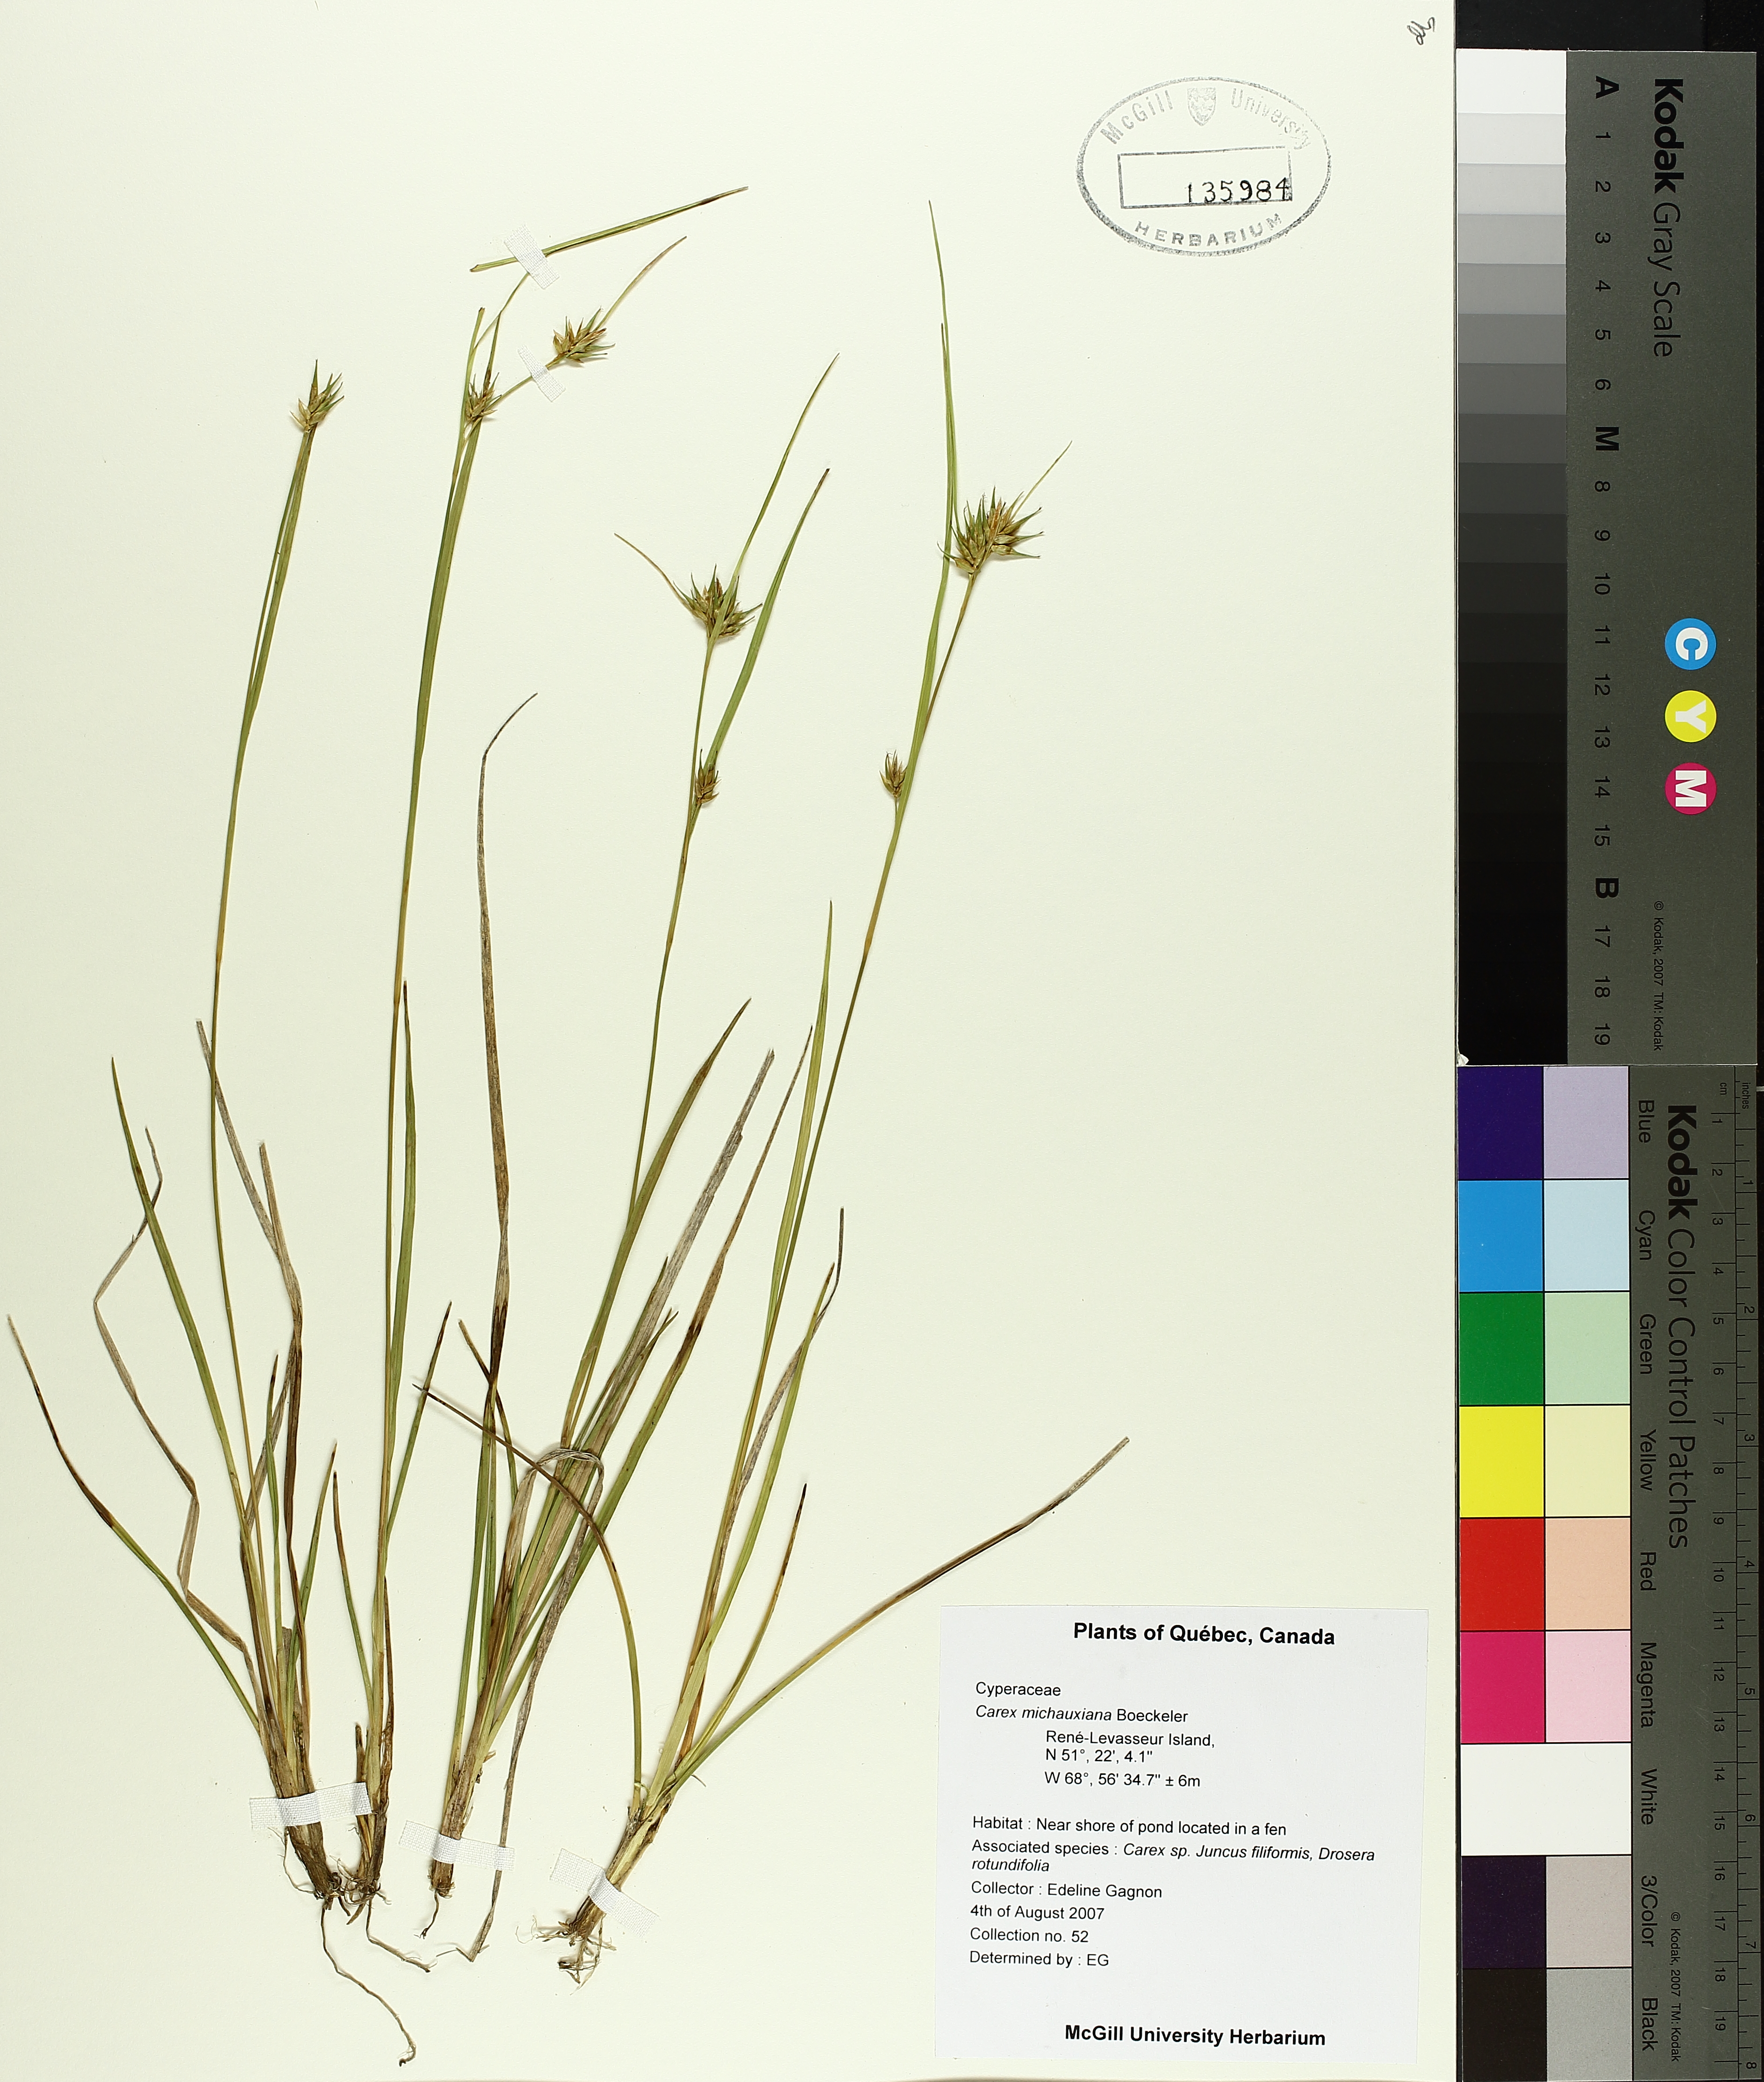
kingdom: Plantae
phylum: Tracheophyta
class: Liliopsida
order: Poales
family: Cyperaceae
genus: Carex
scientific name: Carex michauxiana
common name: Michaux's sedge
